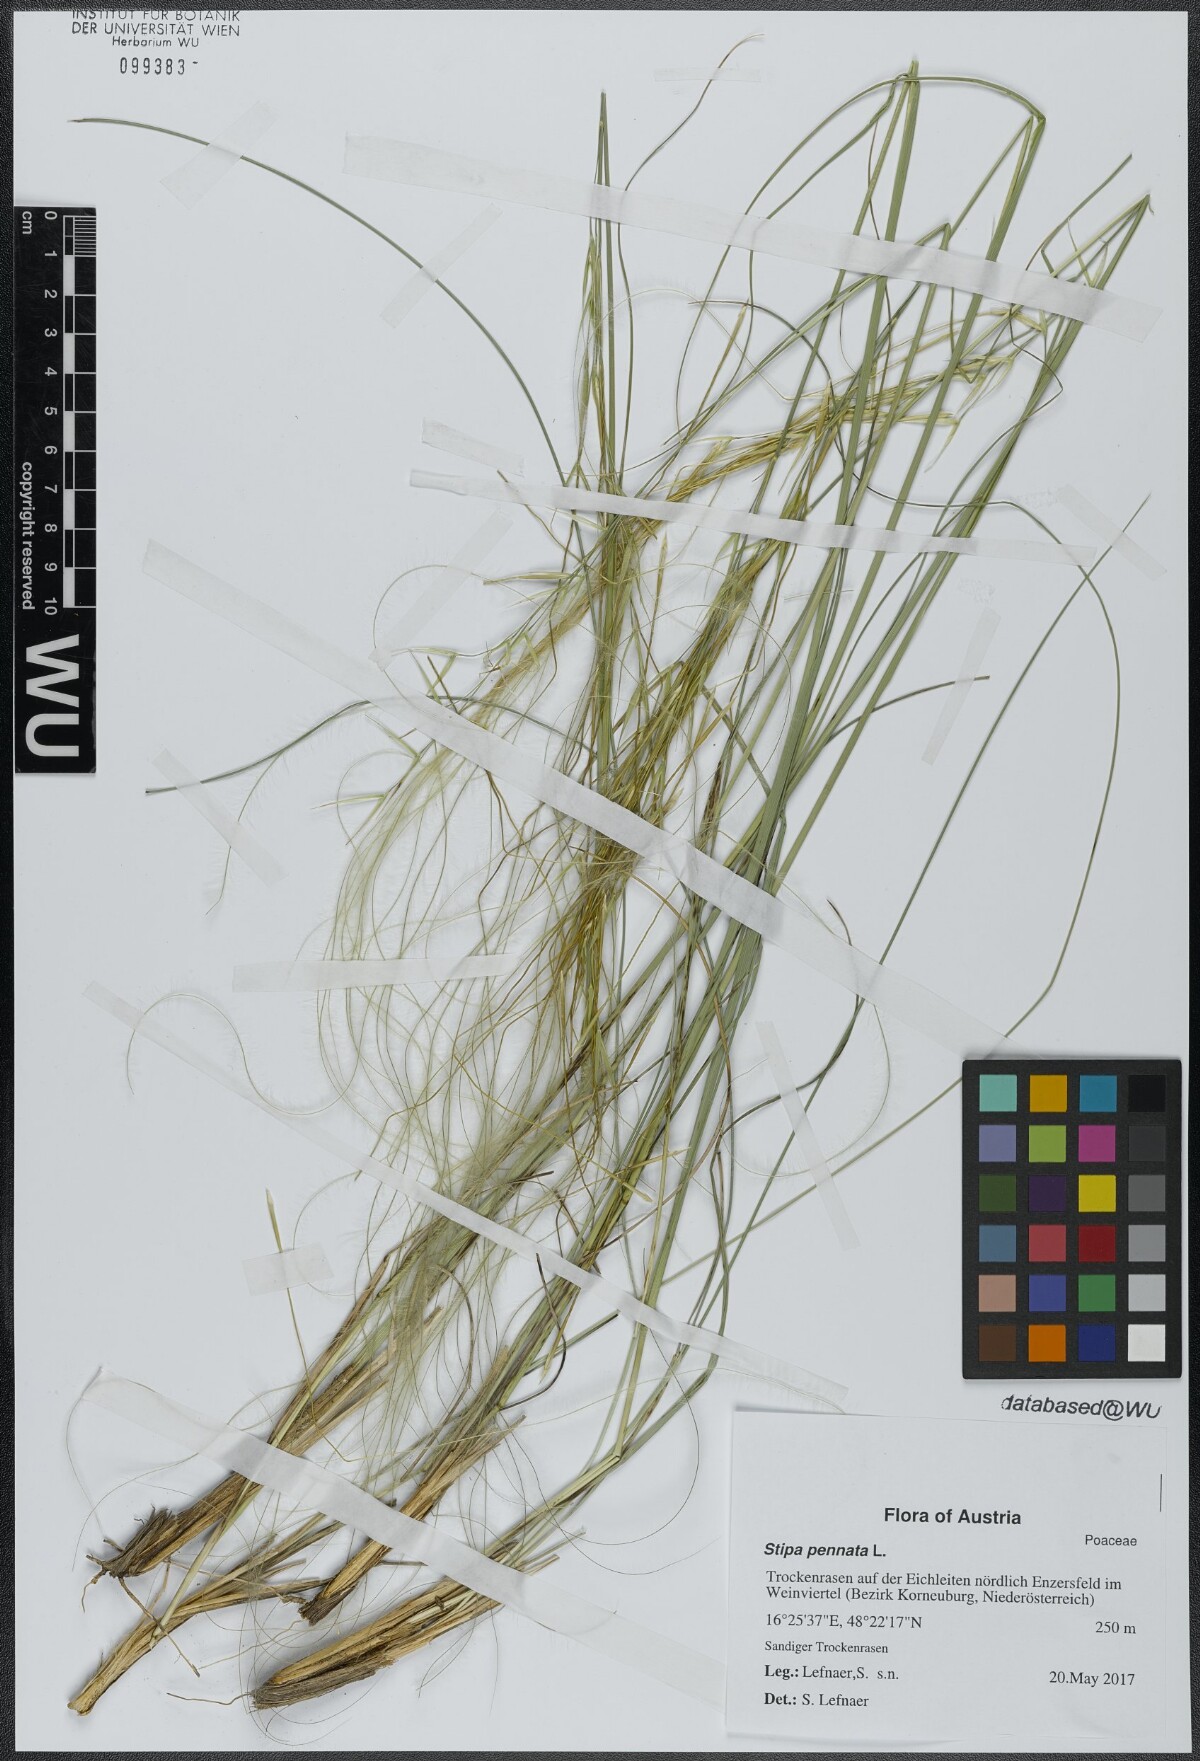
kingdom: Plantae
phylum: Tracheophyta
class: Liliopsida
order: Poales
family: Poaceae
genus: Stipa
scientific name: Stipa pennata
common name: European feather grass
